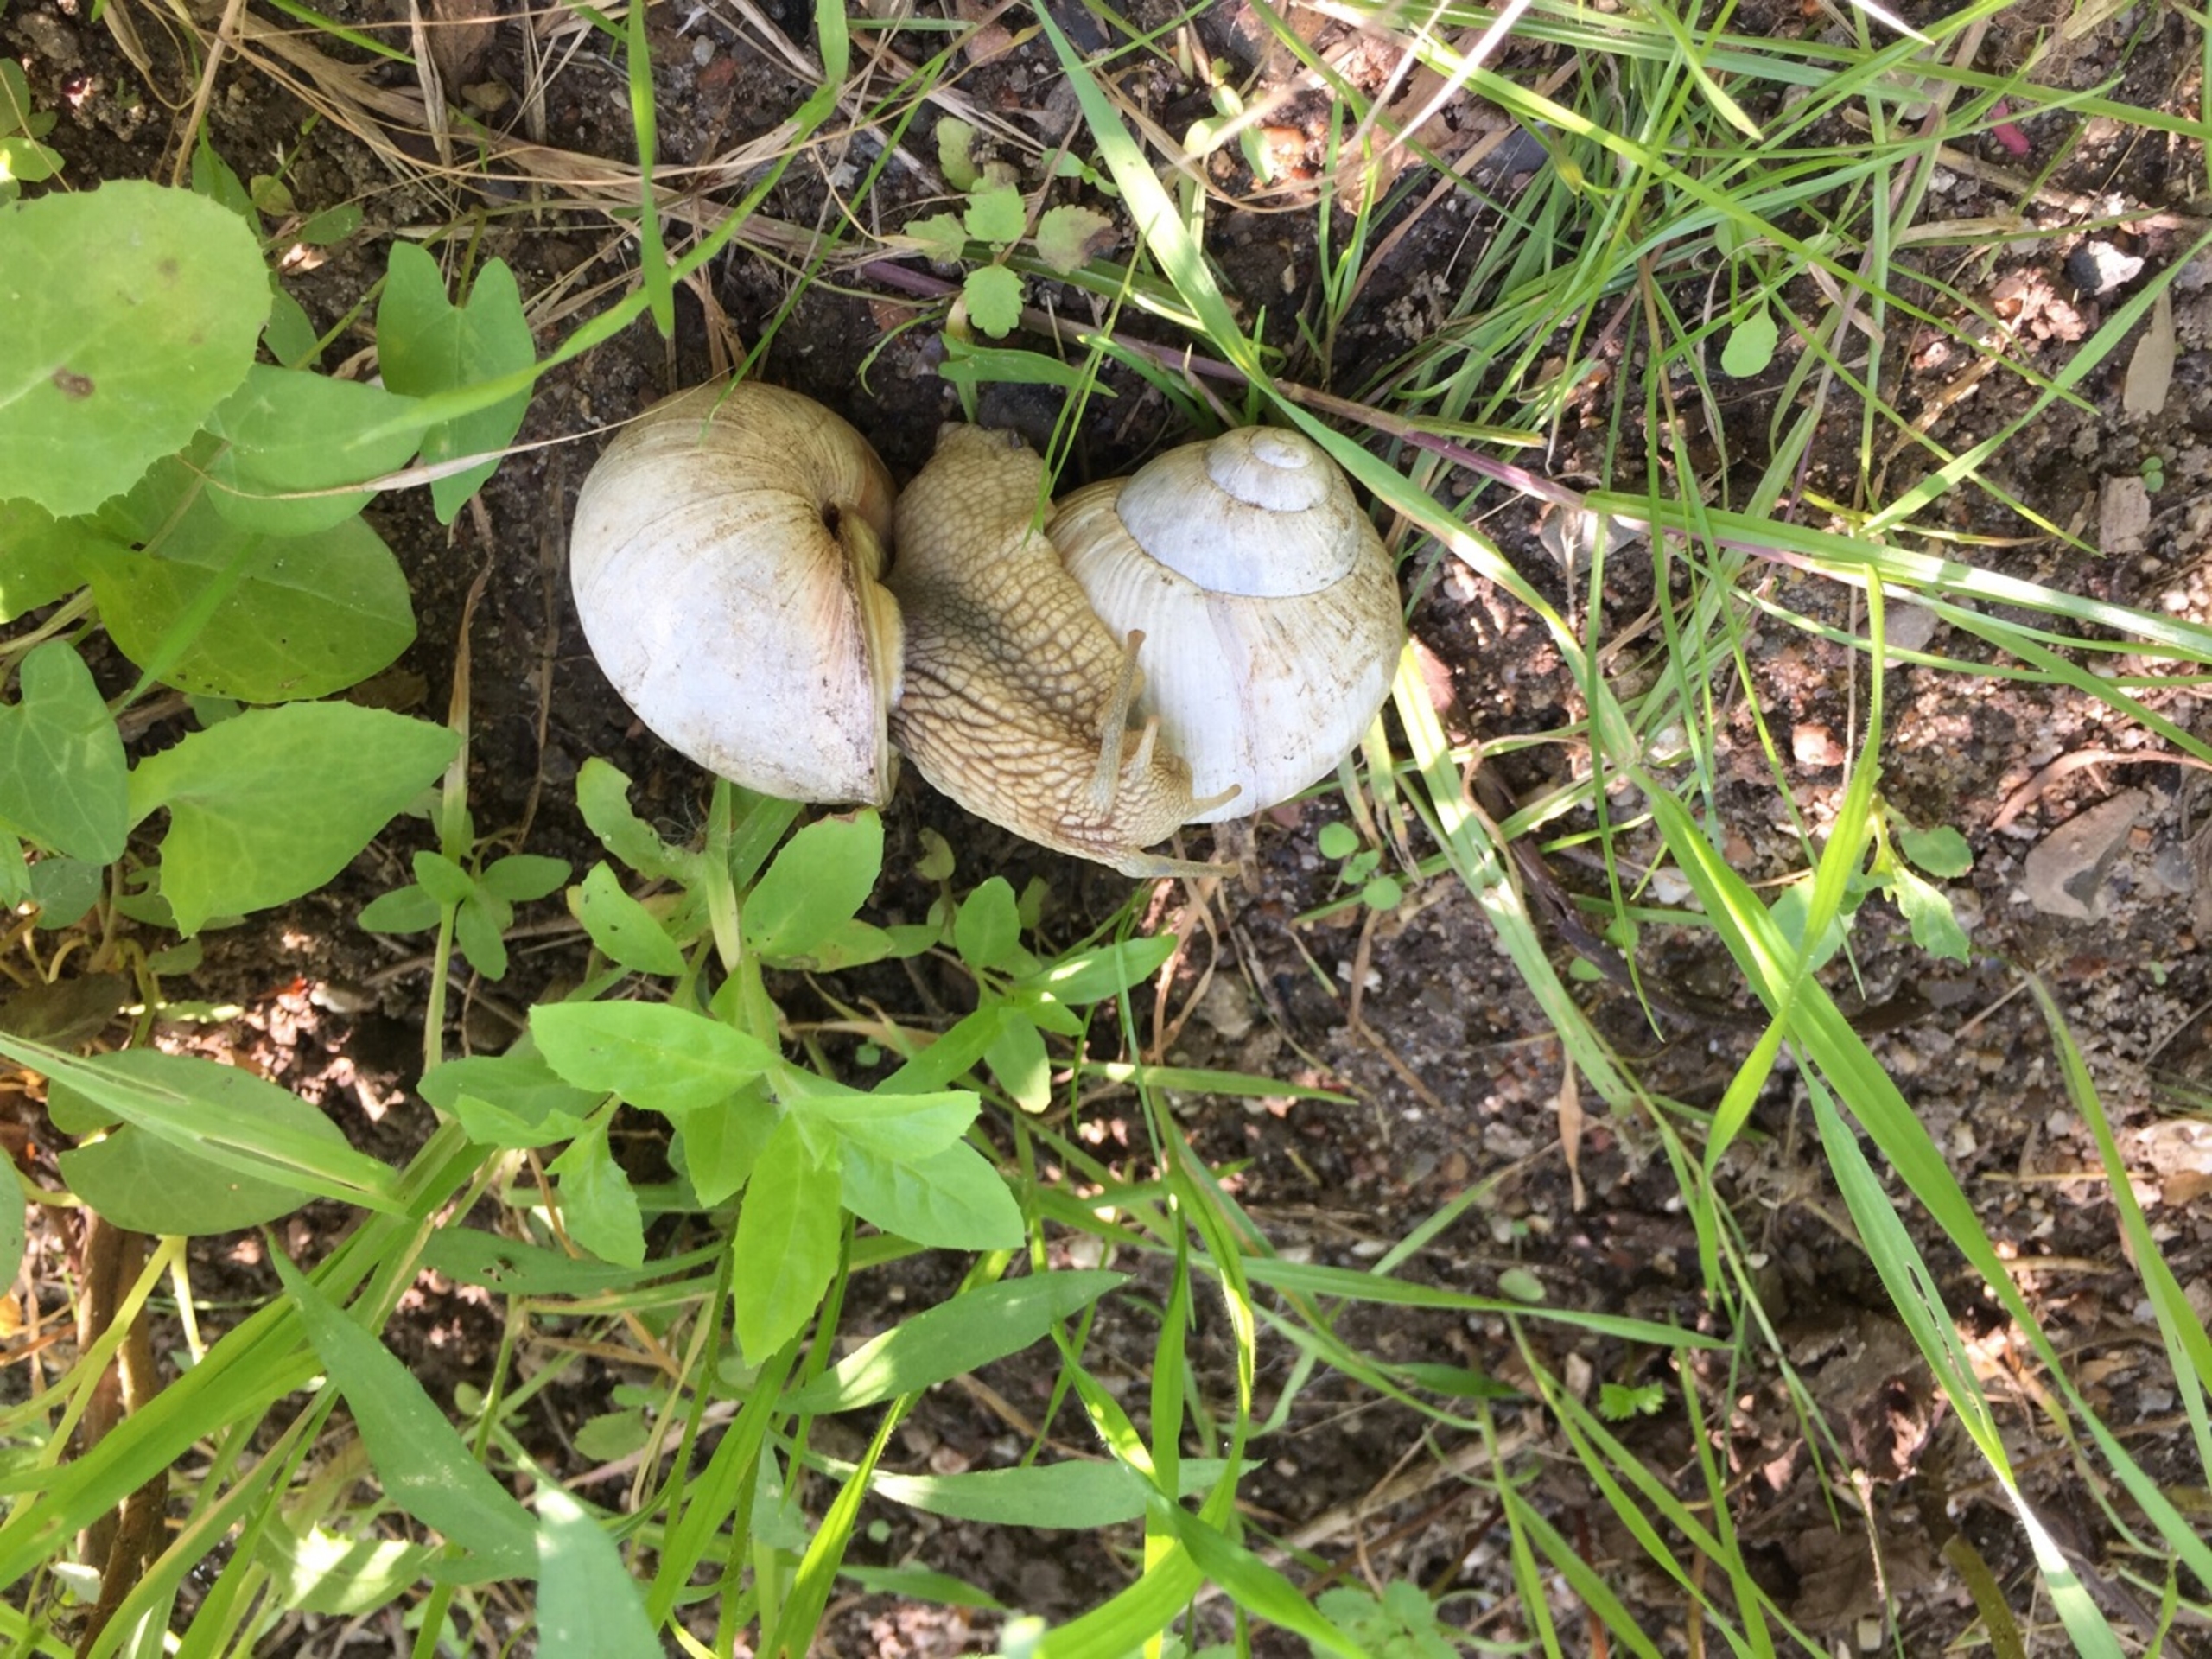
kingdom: Animalia
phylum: Mollusca
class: Gastropoda
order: Stylommatophora
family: Helicidae
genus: Helix
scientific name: Helix pomatia
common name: Vinbjergsnegl
